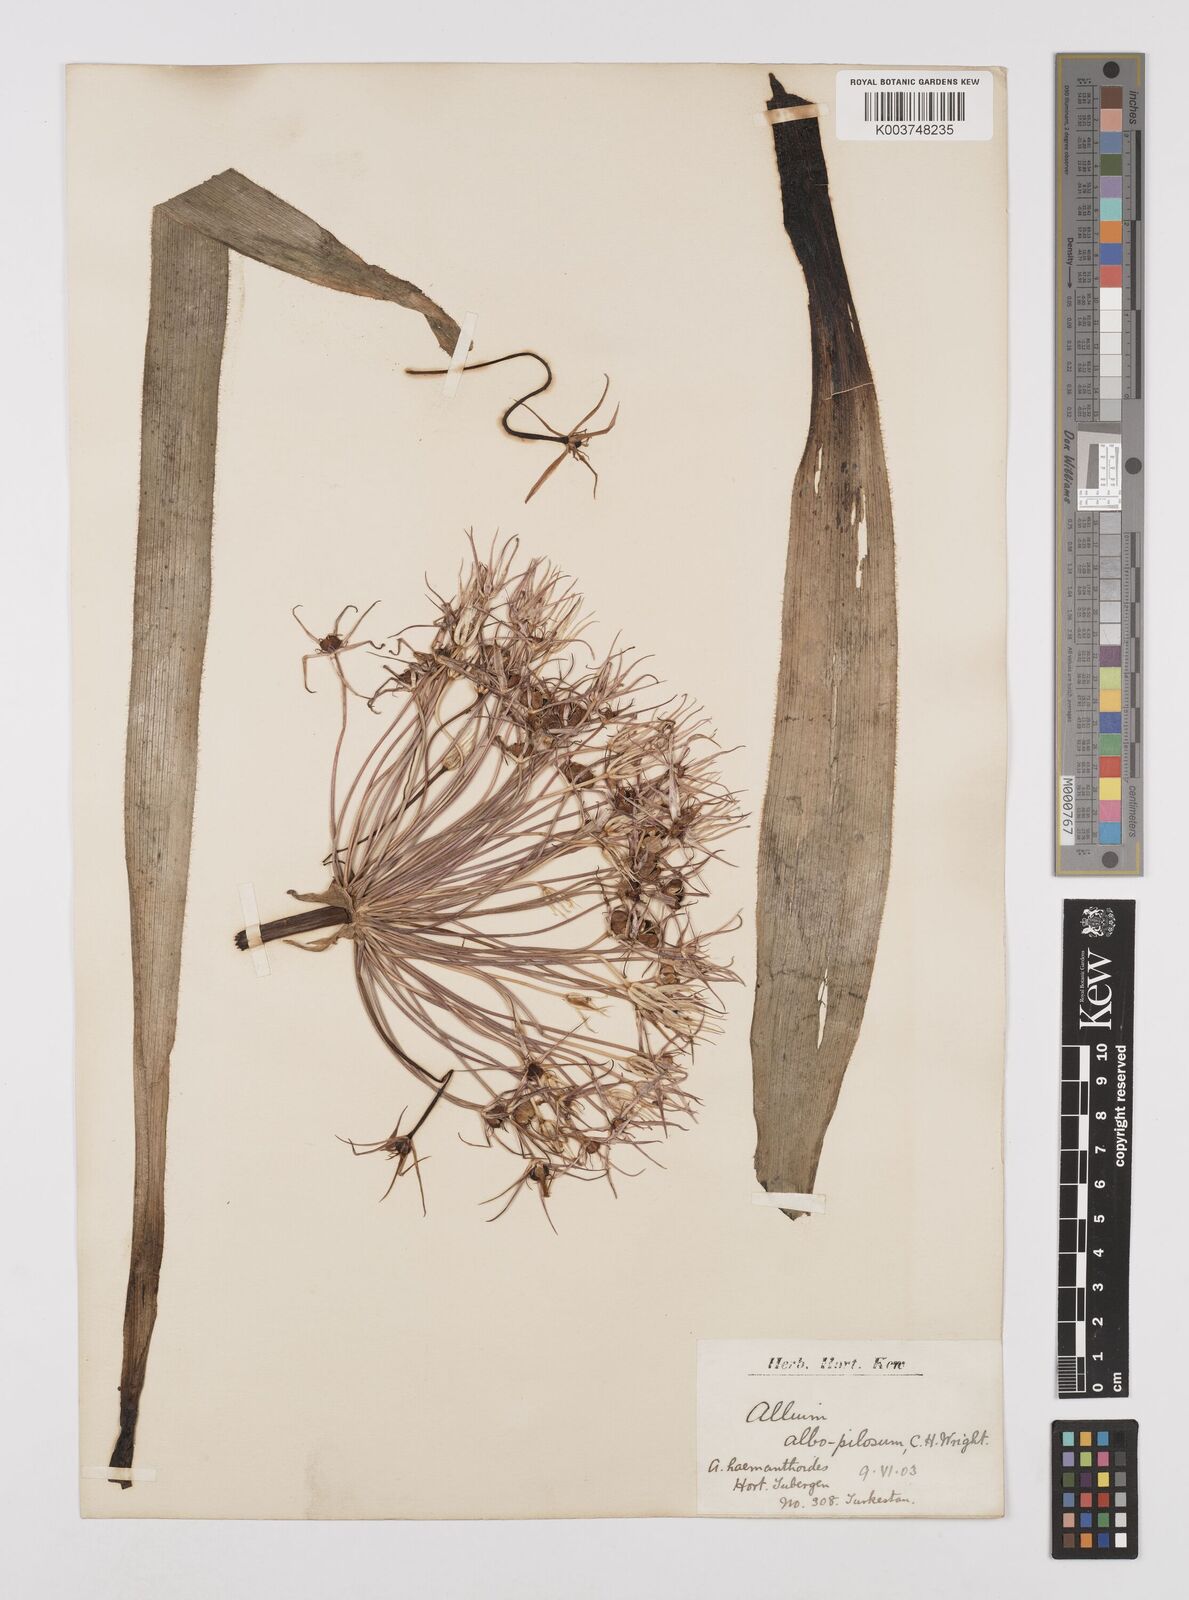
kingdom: Plantae
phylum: Tracheophyta
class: Liliopsida
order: Asparagales
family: Amaryllidaceae
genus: Allium
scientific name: Allium cristophii
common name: Persian onion
